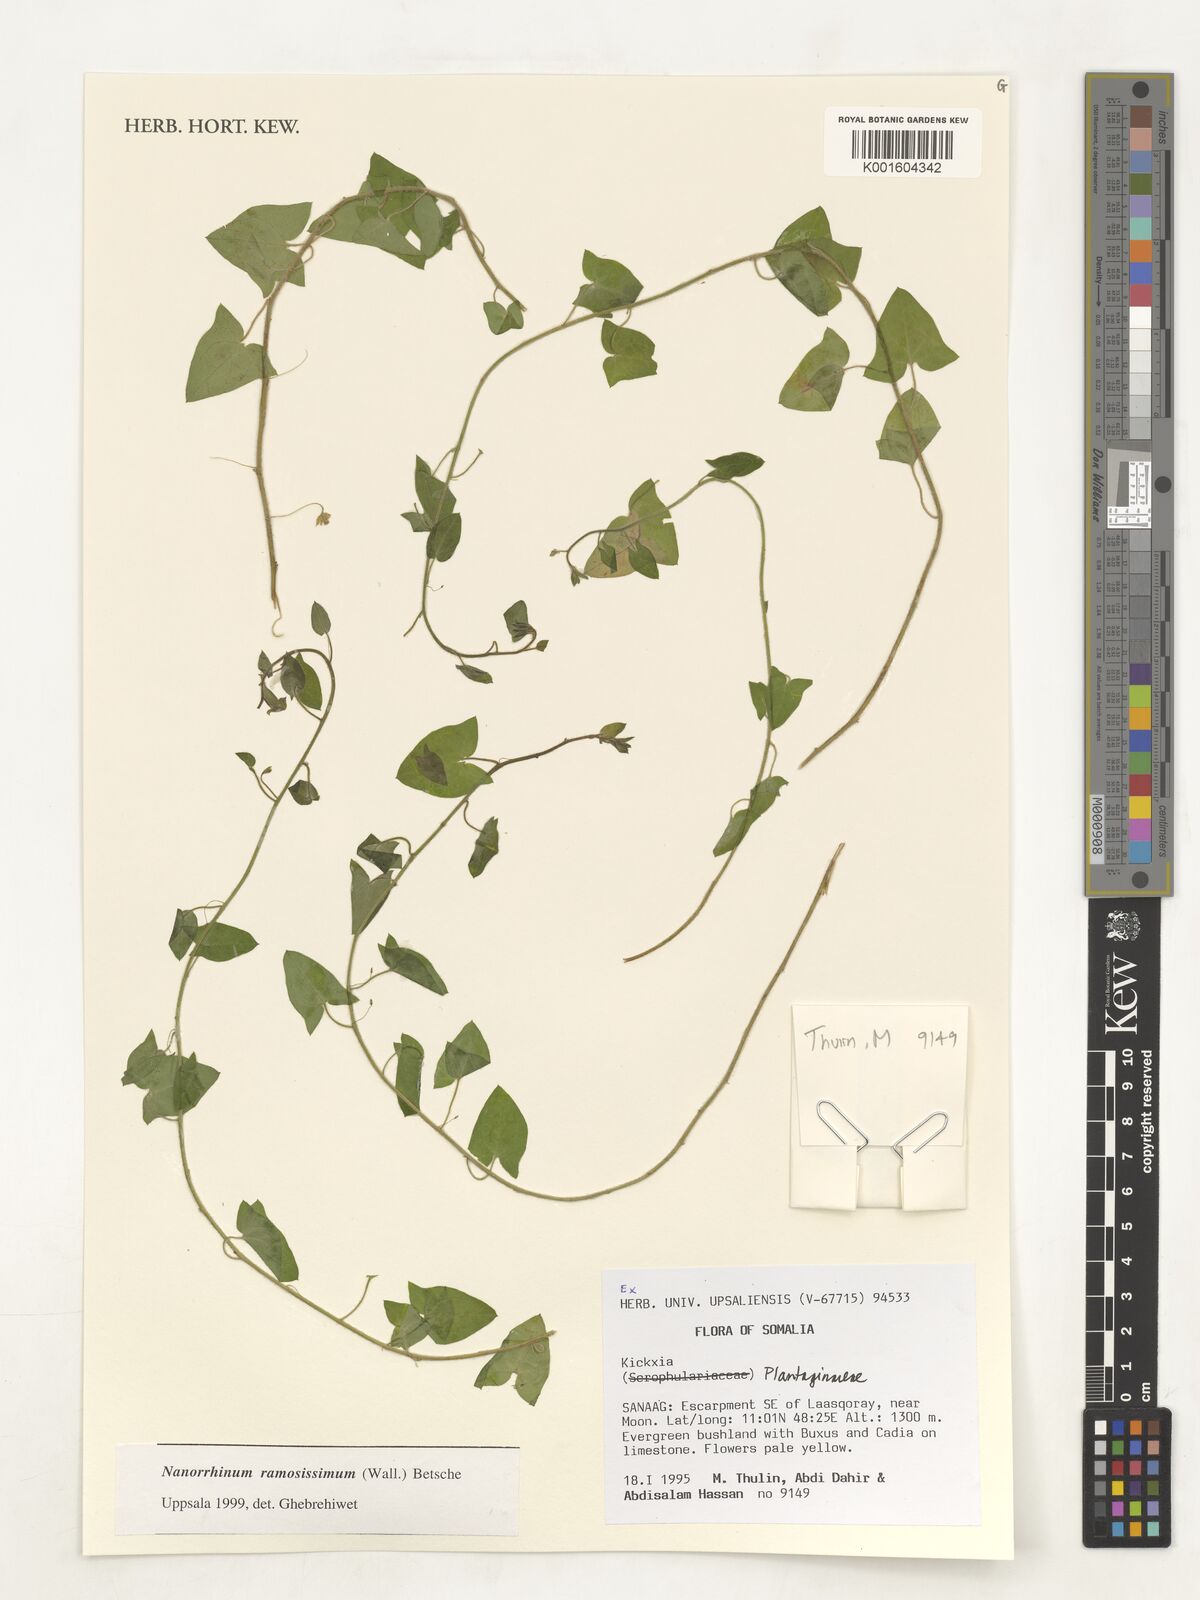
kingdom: Plantae
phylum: Tracheophyta
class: Magnoliopsida
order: Lamiales
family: Plantaginaceae
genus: Kickxia
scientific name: Kickxia
